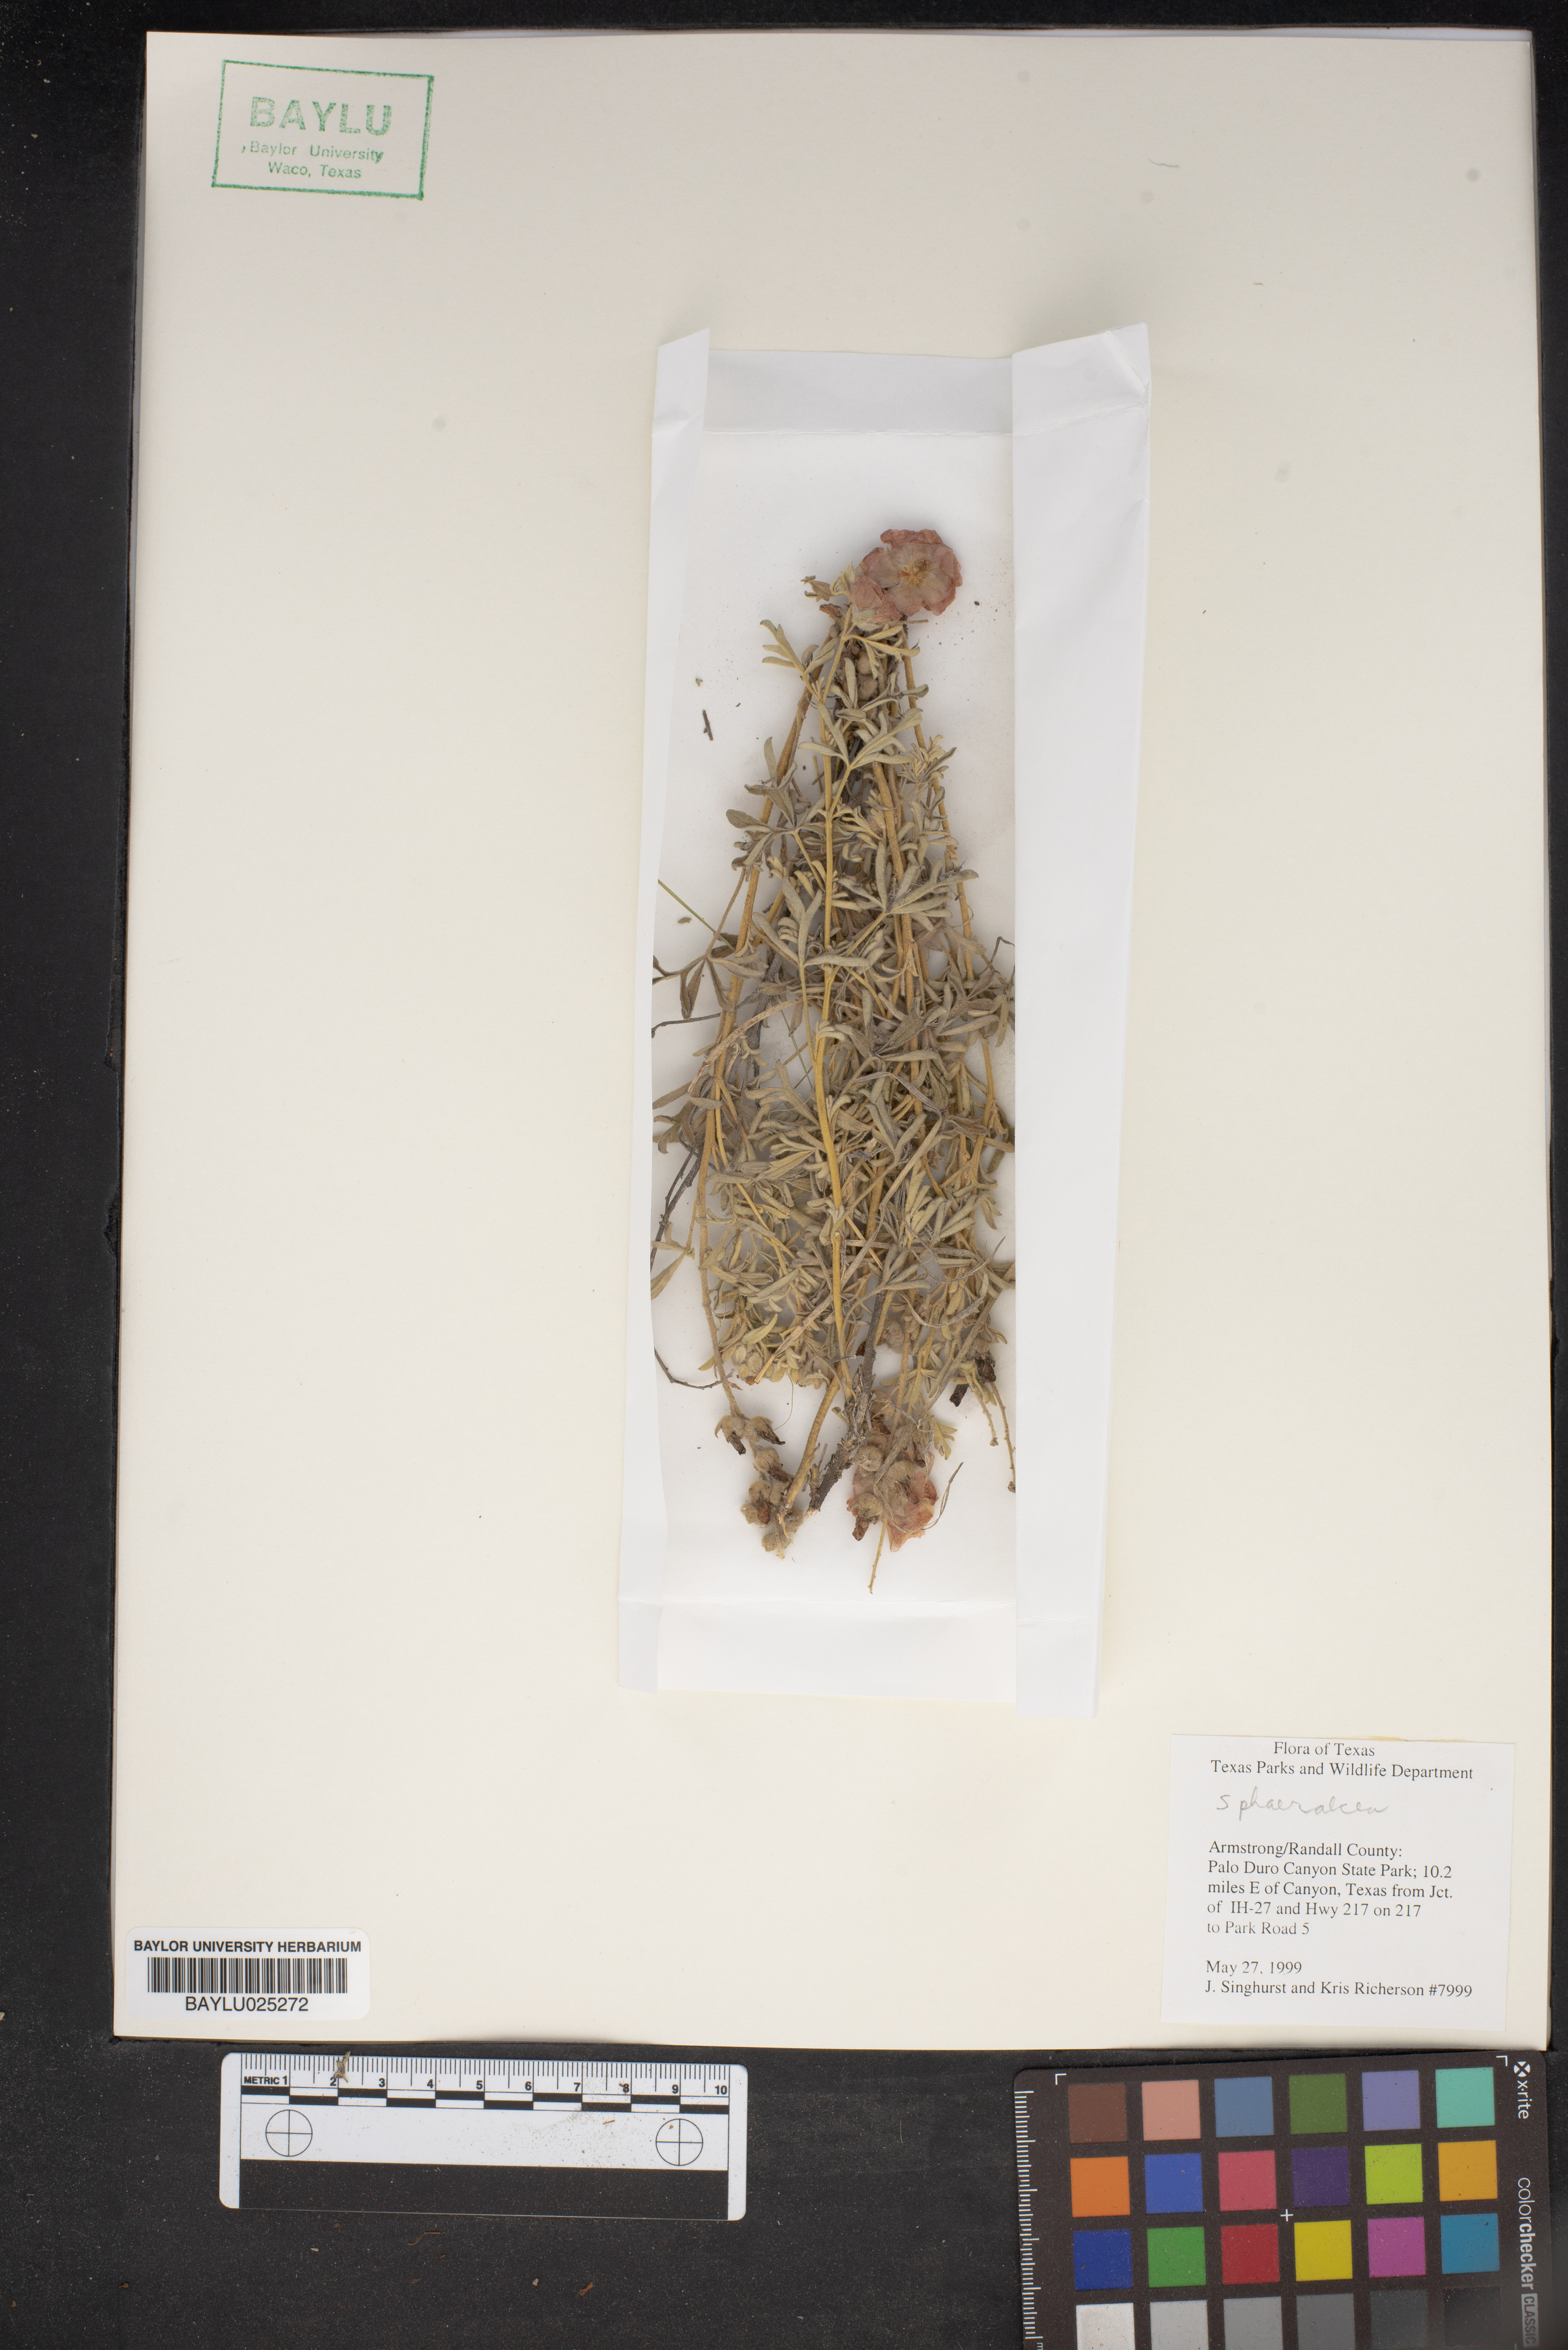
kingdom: Plantae
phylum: Tracheophyta
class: Magnoliopsida
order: Malvales
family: Malvaceae
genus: Sphaeralcea
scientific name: Sphaeralcea
